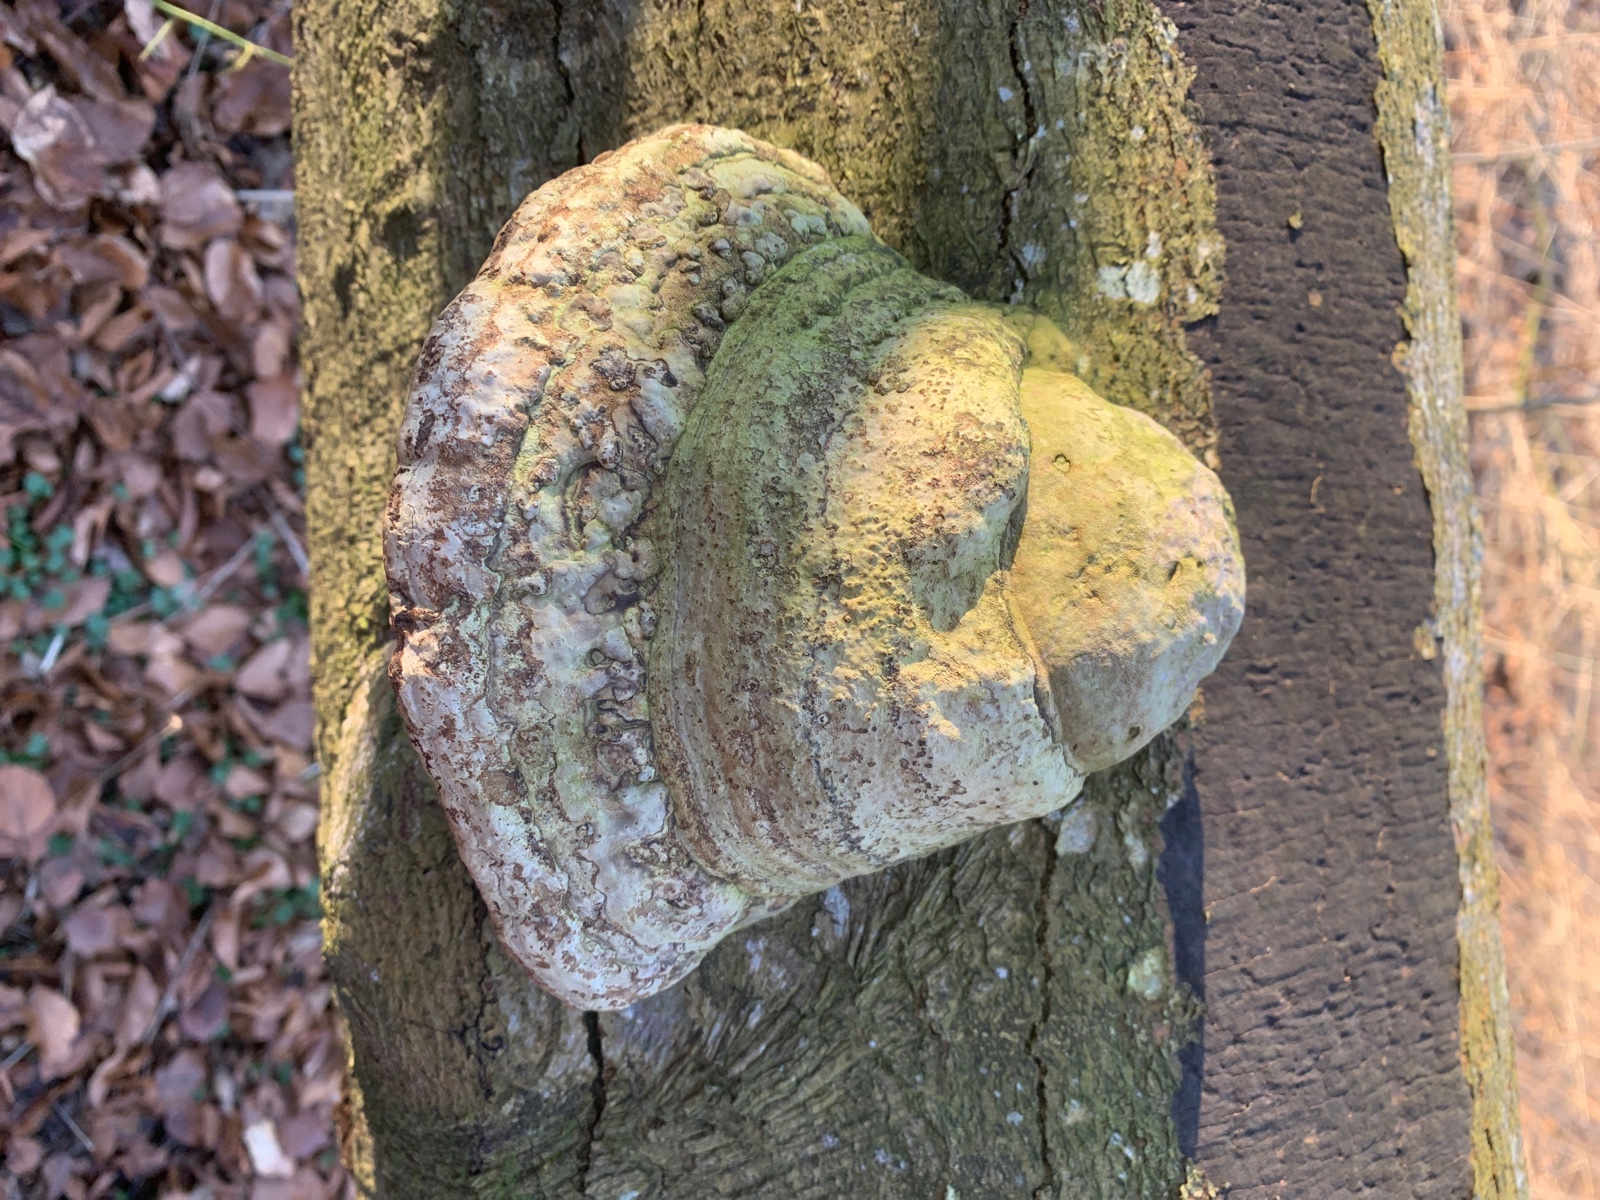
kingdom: Fungi
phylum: Basidiomycota
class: Agaricomycetes
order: Polyporales
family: Polyporaceae
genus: Fomes
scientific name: Fomes fomentarius
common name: tøndersvamp
